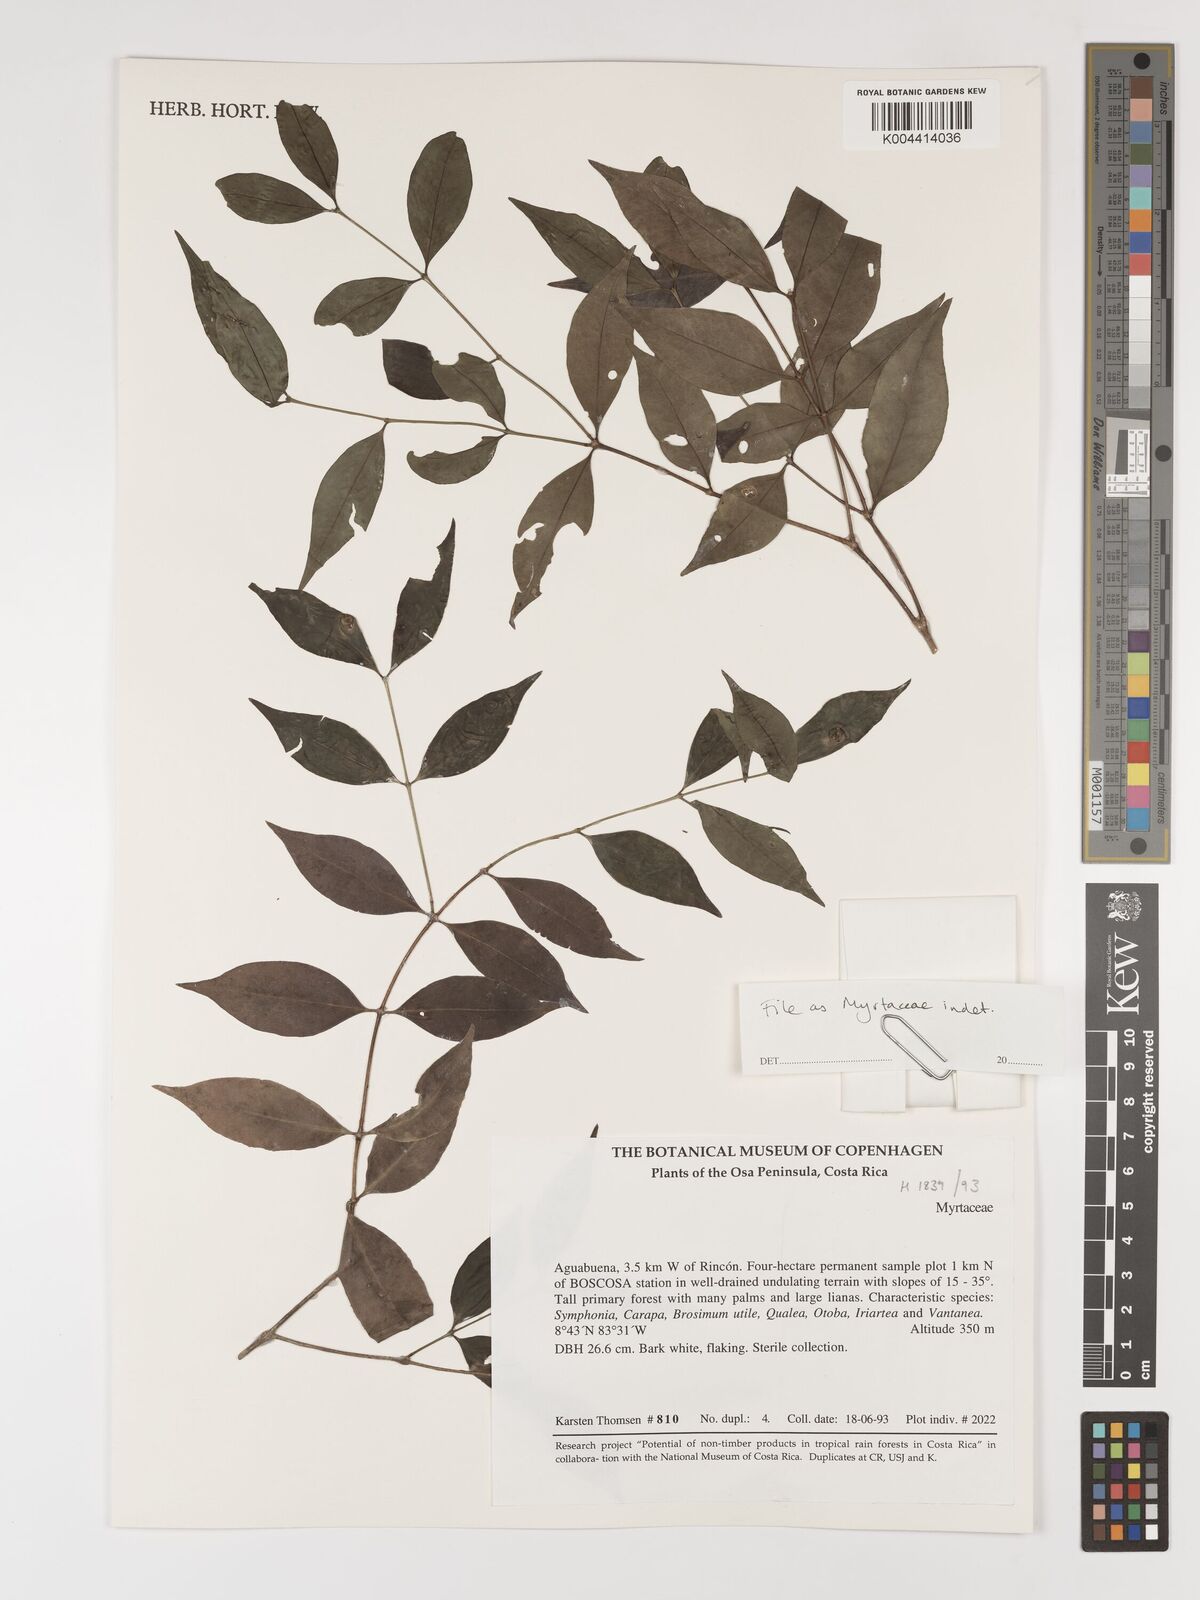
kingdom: Plantae
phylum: Tracheophyta
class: Magnoliopsida
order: Myrtales
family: Myrtaceae
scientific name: Myrtaceae
